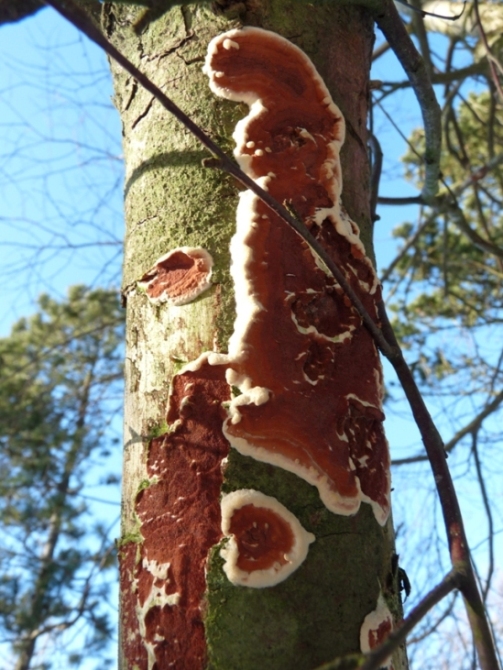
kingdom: Fungi
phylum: Basidiomycota
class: Agaricomycetes
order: Polyporales
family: Irpicaceae
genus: Meruliopsis
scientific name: Meruliopsis taxicola
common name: purpurbrun foldporesvamp
